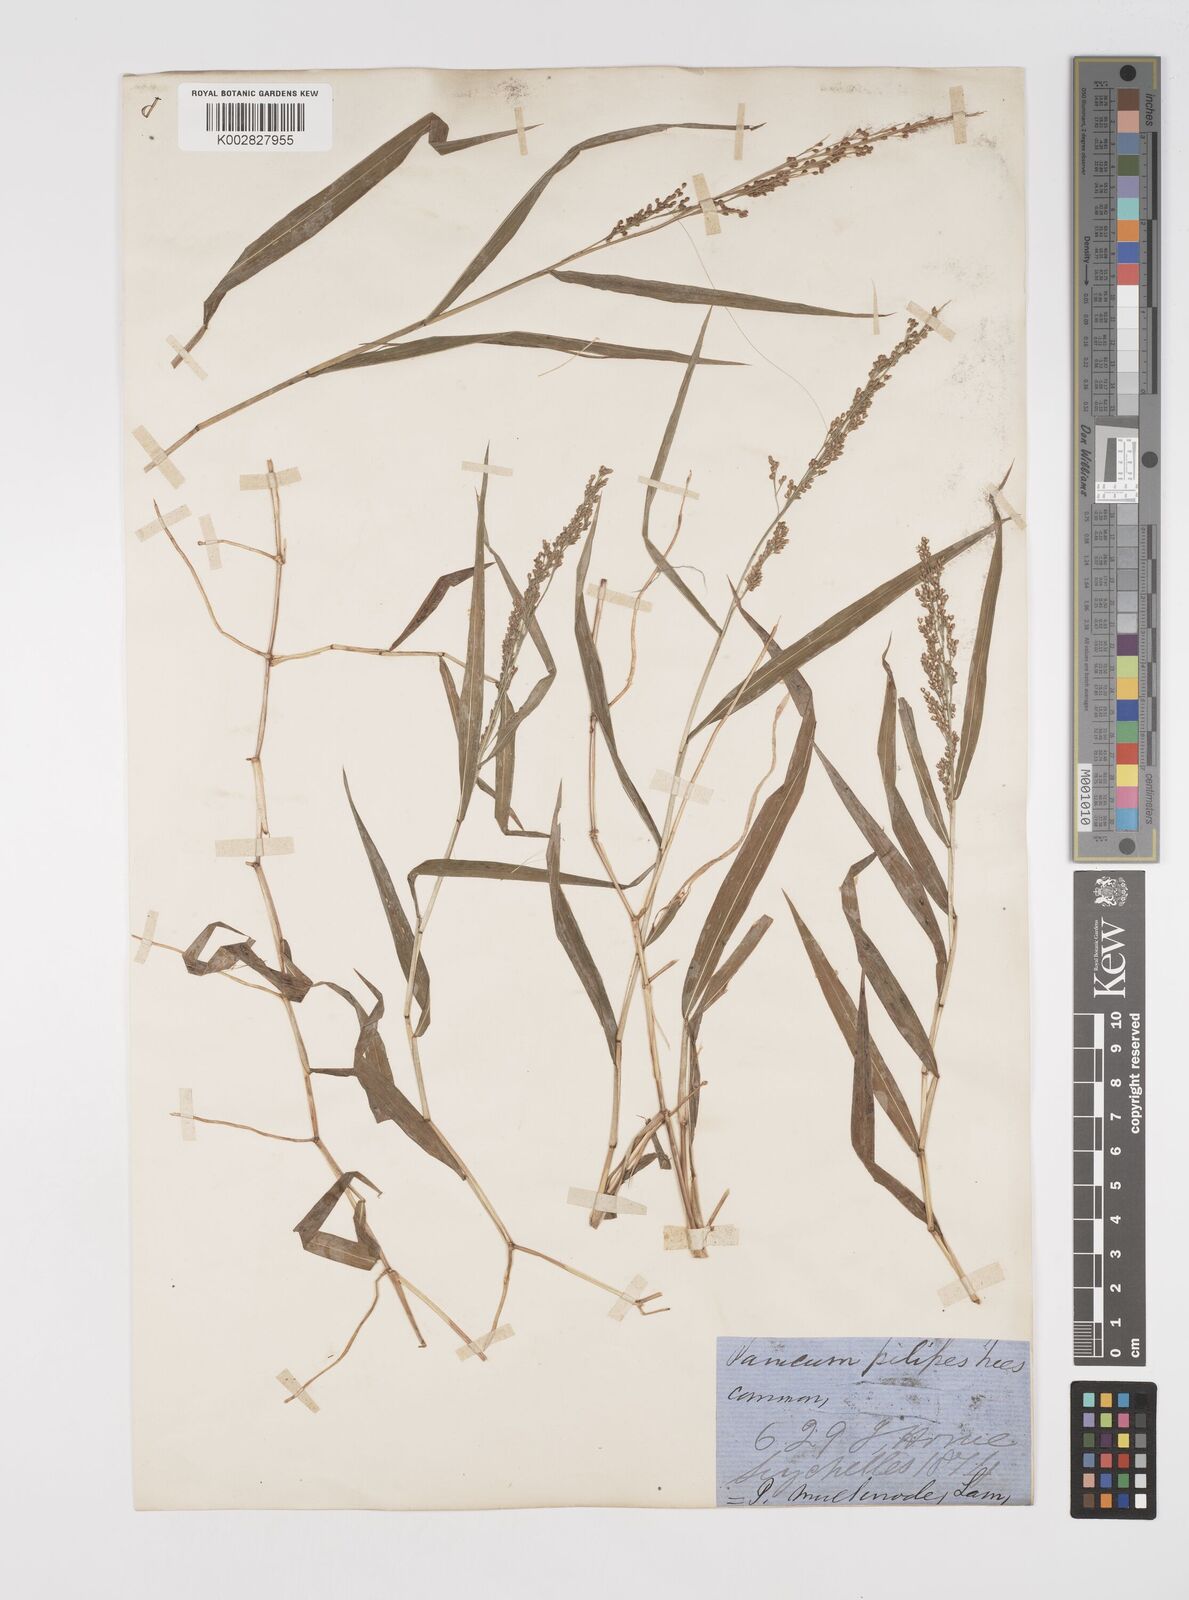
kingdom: Plantae
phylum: Tracheophyta
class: Liliopsida
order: Poales
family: Poaceae
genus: Cyrtococcum
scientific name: Cyrtococcum oxyphyllum
